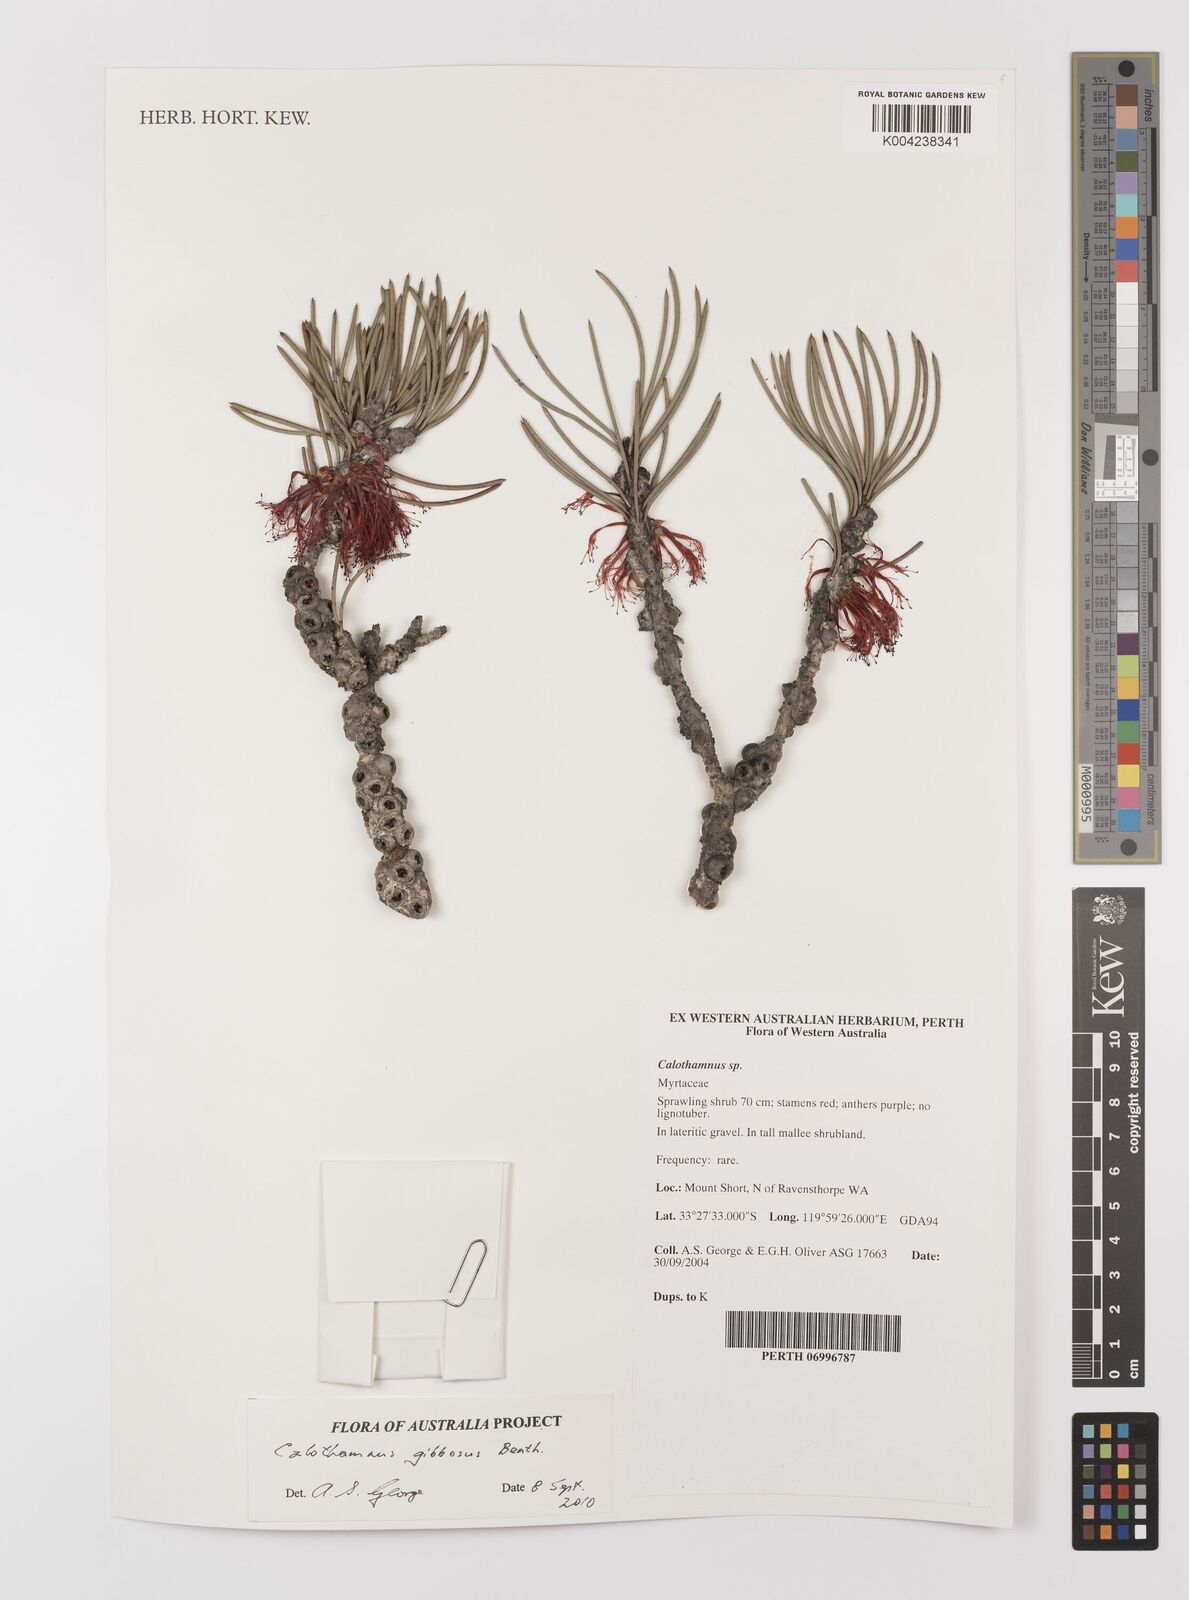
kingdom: Plantae
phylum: Tracheophyta
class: Magnoliopsida
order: Myrtales
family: Myrtaceae
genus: Melaleuca
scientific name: Melaleuca protumida
